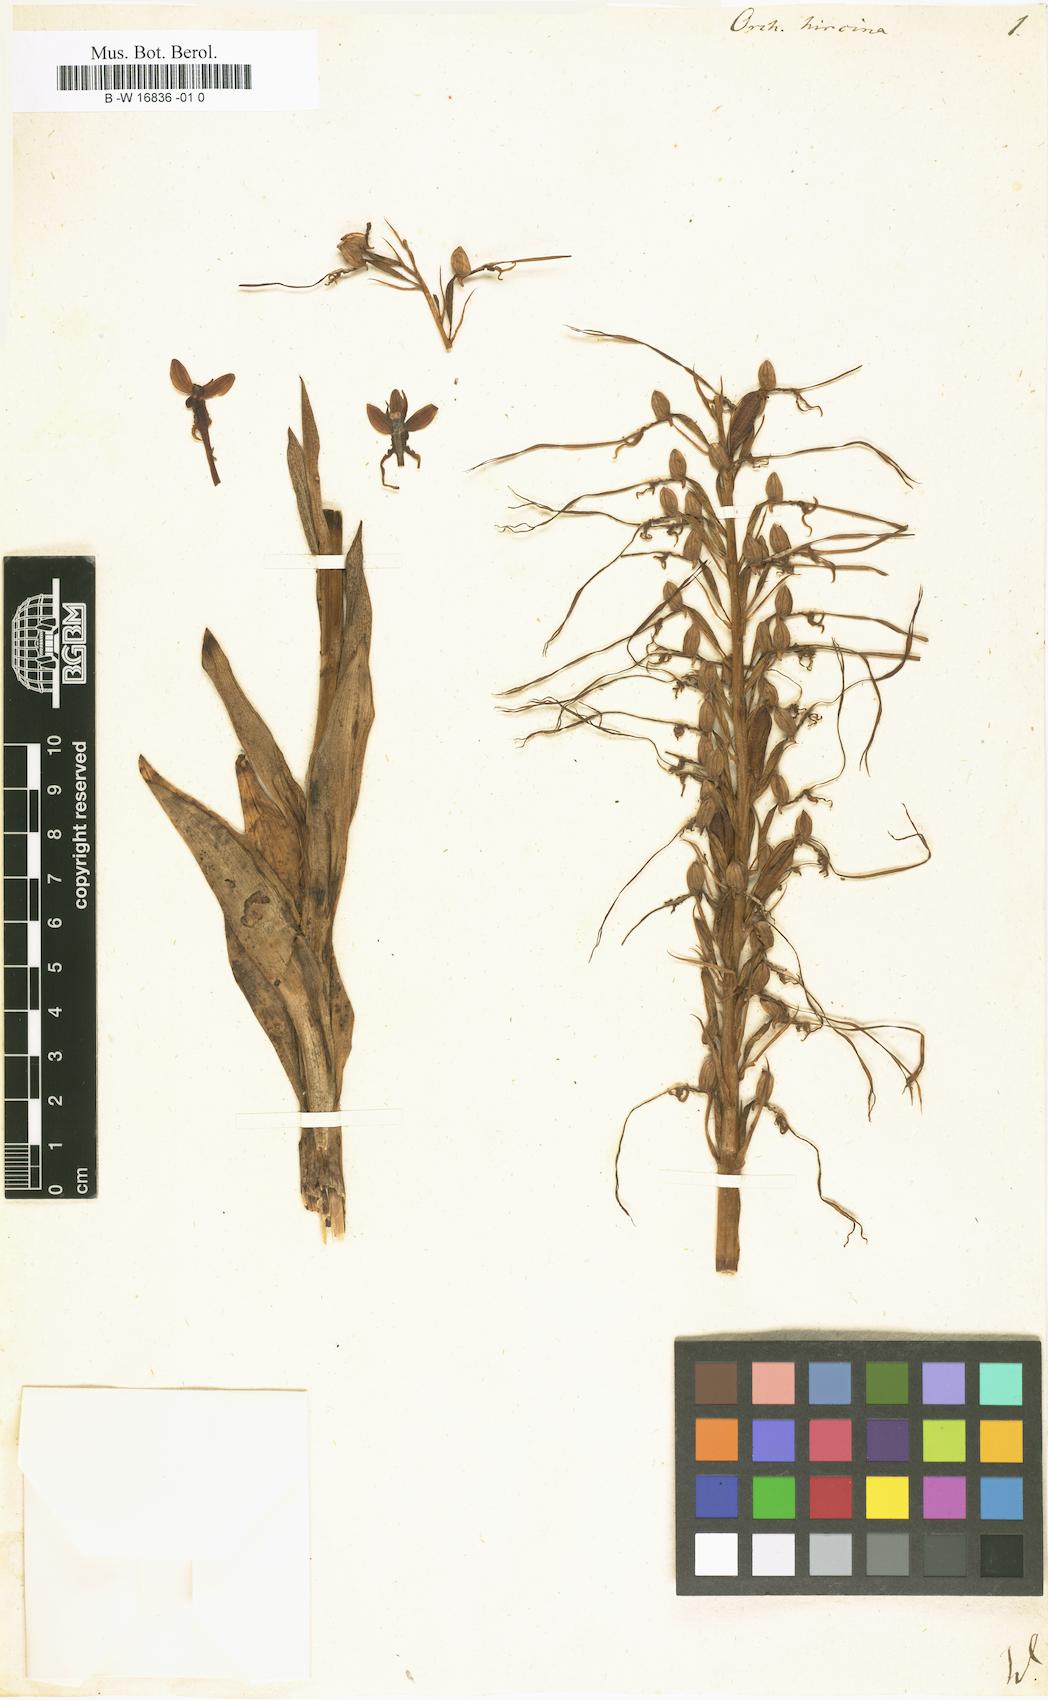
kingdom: Plantae
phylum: Tracheophyta
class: Liliopsida
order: Asparagales
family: Orchidaceae
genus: Himantoglossum
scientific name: Himantoglossum hircinum
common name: Lizard orchid
